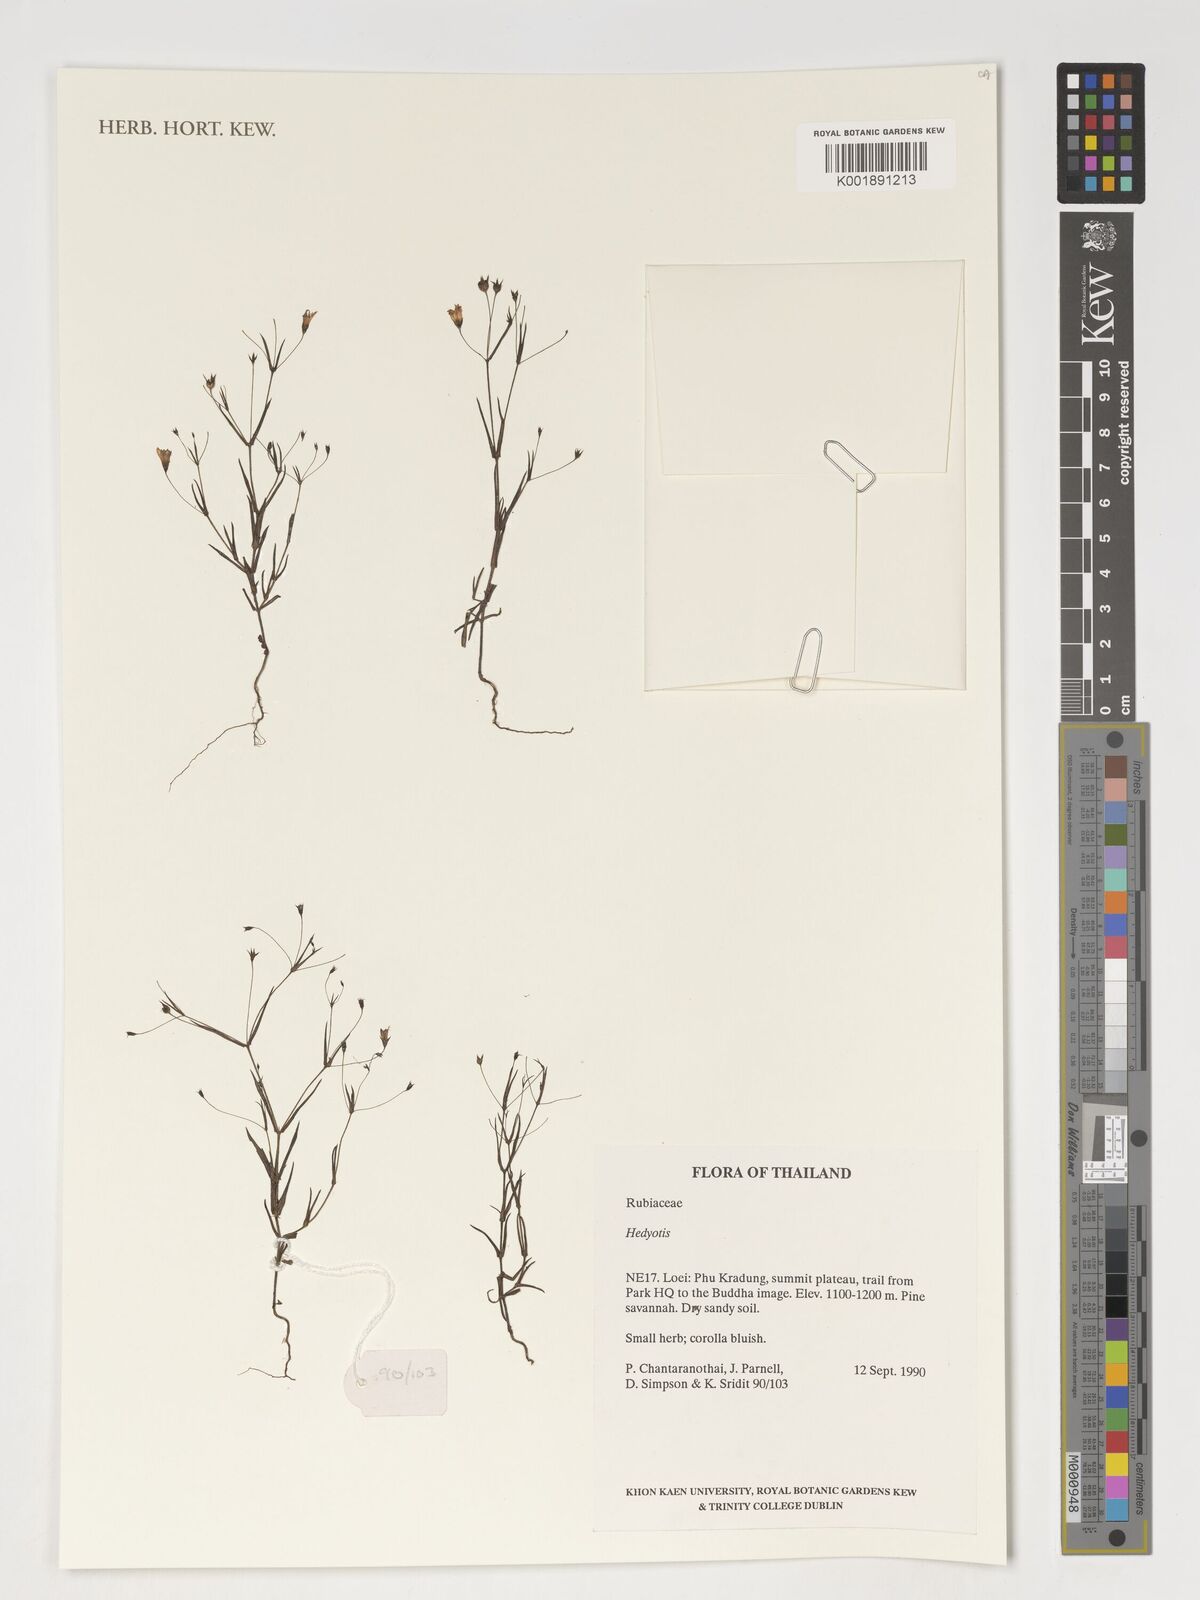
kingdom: Plantae
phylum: Tracheophyta
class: Magnoliopsida
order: Gentianales
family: Rubiaceae
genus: Hedyotis
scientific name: Hedyotis
